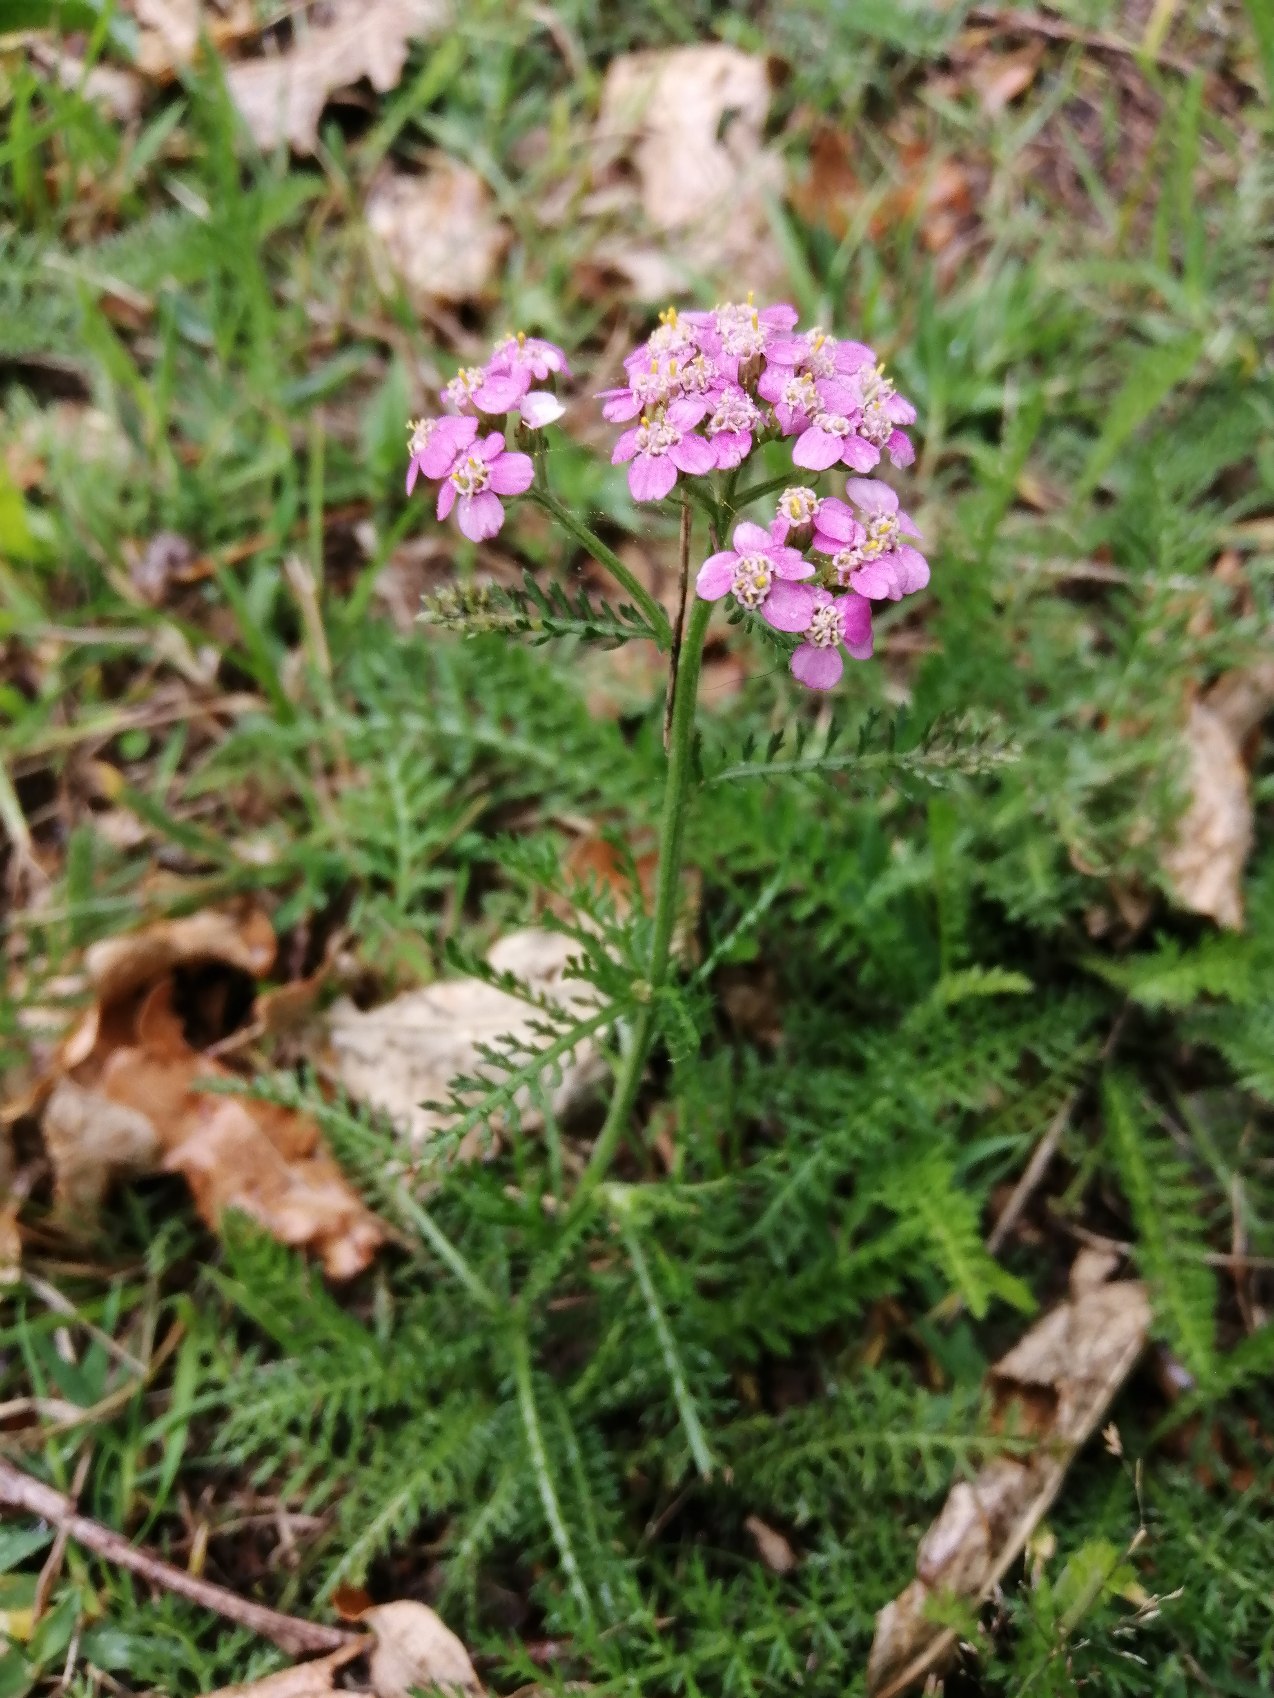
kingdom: Plantae
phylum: Tracheophyta
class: Magnoliopsida
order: Asterales
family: Asteraceae
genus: Achillea
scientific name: Achillea millefolium
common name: Almindelig røllike
